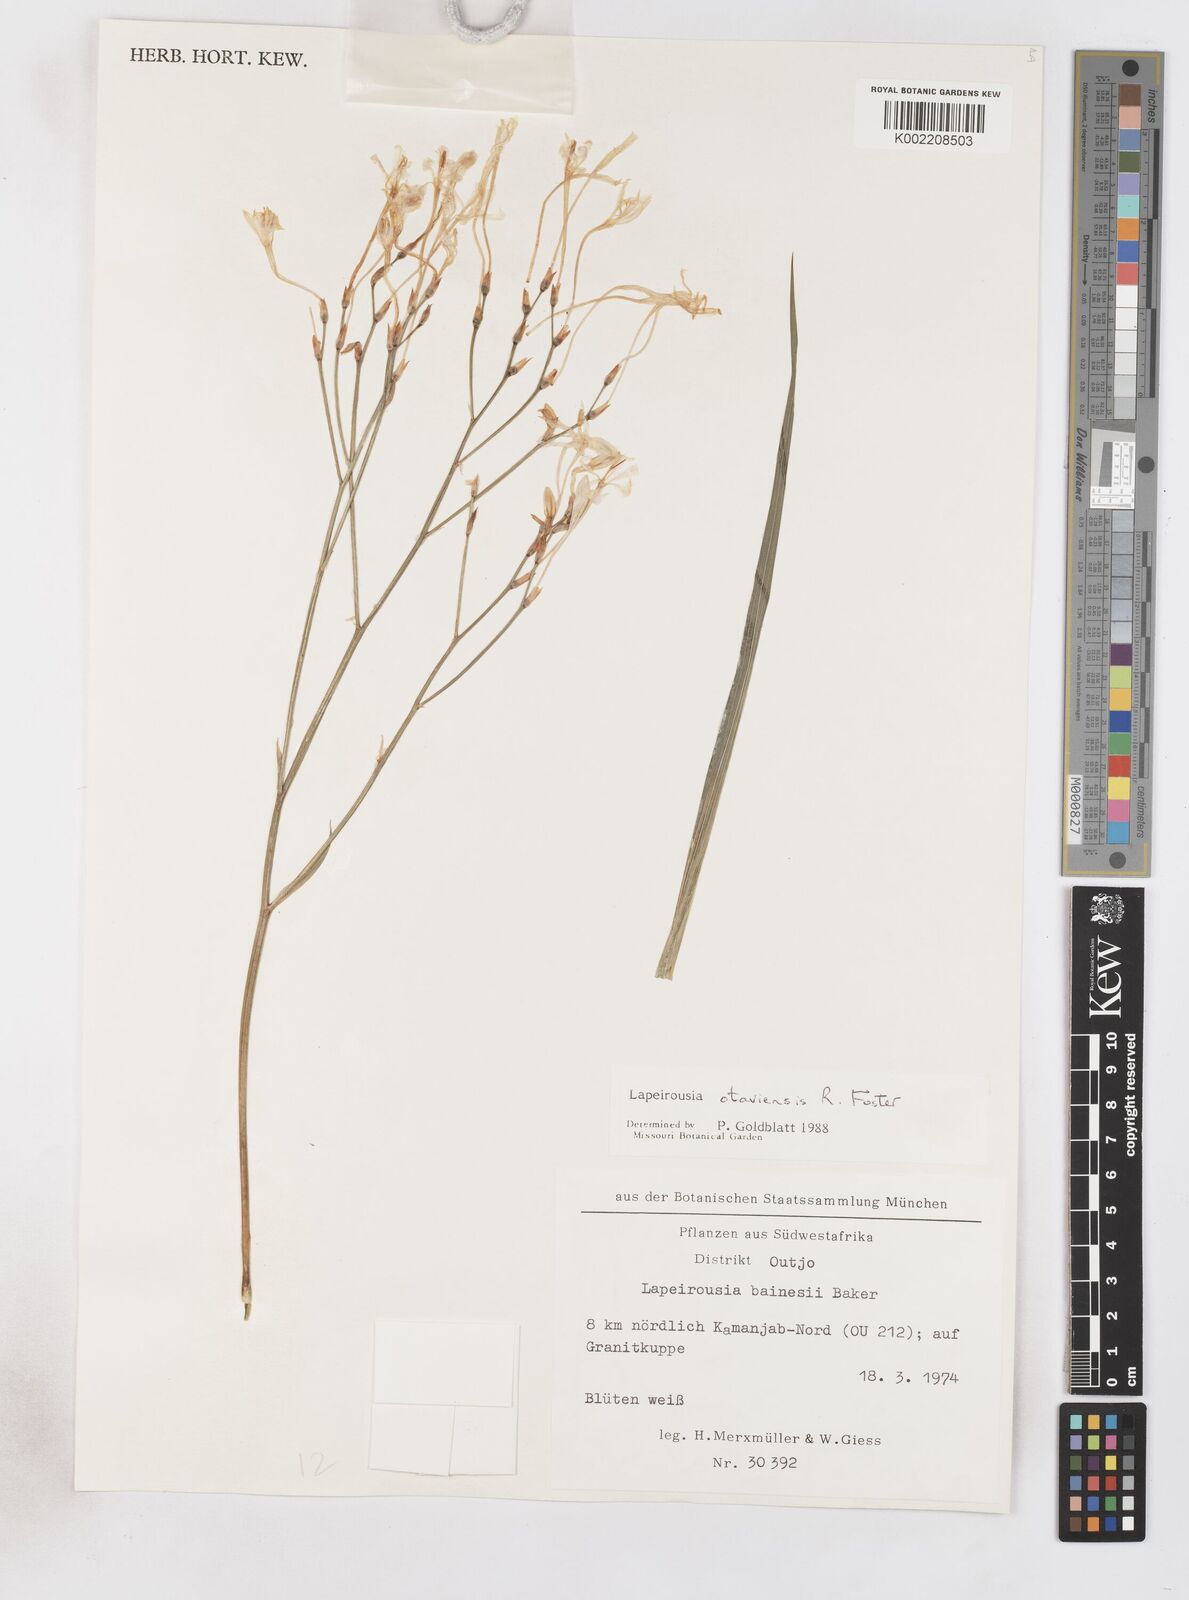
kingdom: Plantae
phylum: Tracheophyta
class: Liliopsida
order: Asparagales
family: Iridaceae
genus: Afrosolen
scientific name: Afrosolen otaviensis
